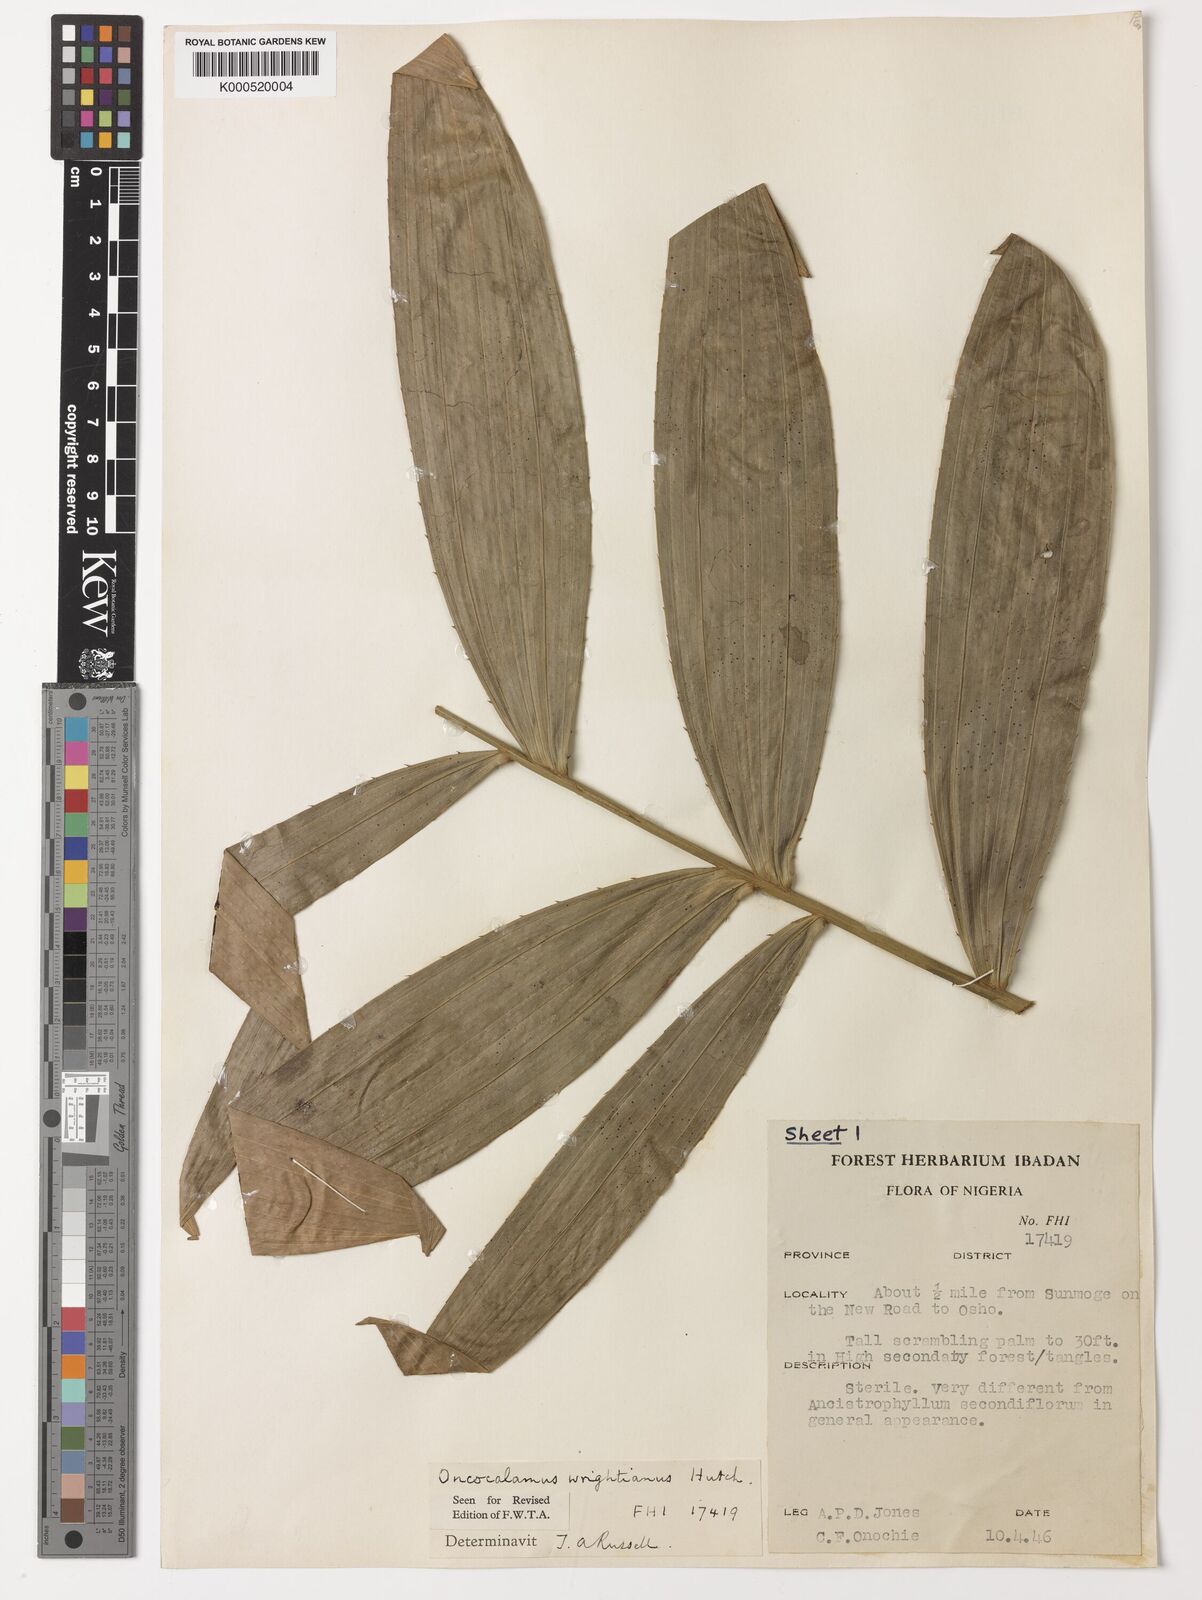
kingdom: Plantae
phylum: Tracheophyta
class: Liliopsida
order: Arecales
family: Arecaceae
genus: Oncocalamus
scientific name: Oncocalamus wrightianus
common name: Rattan
